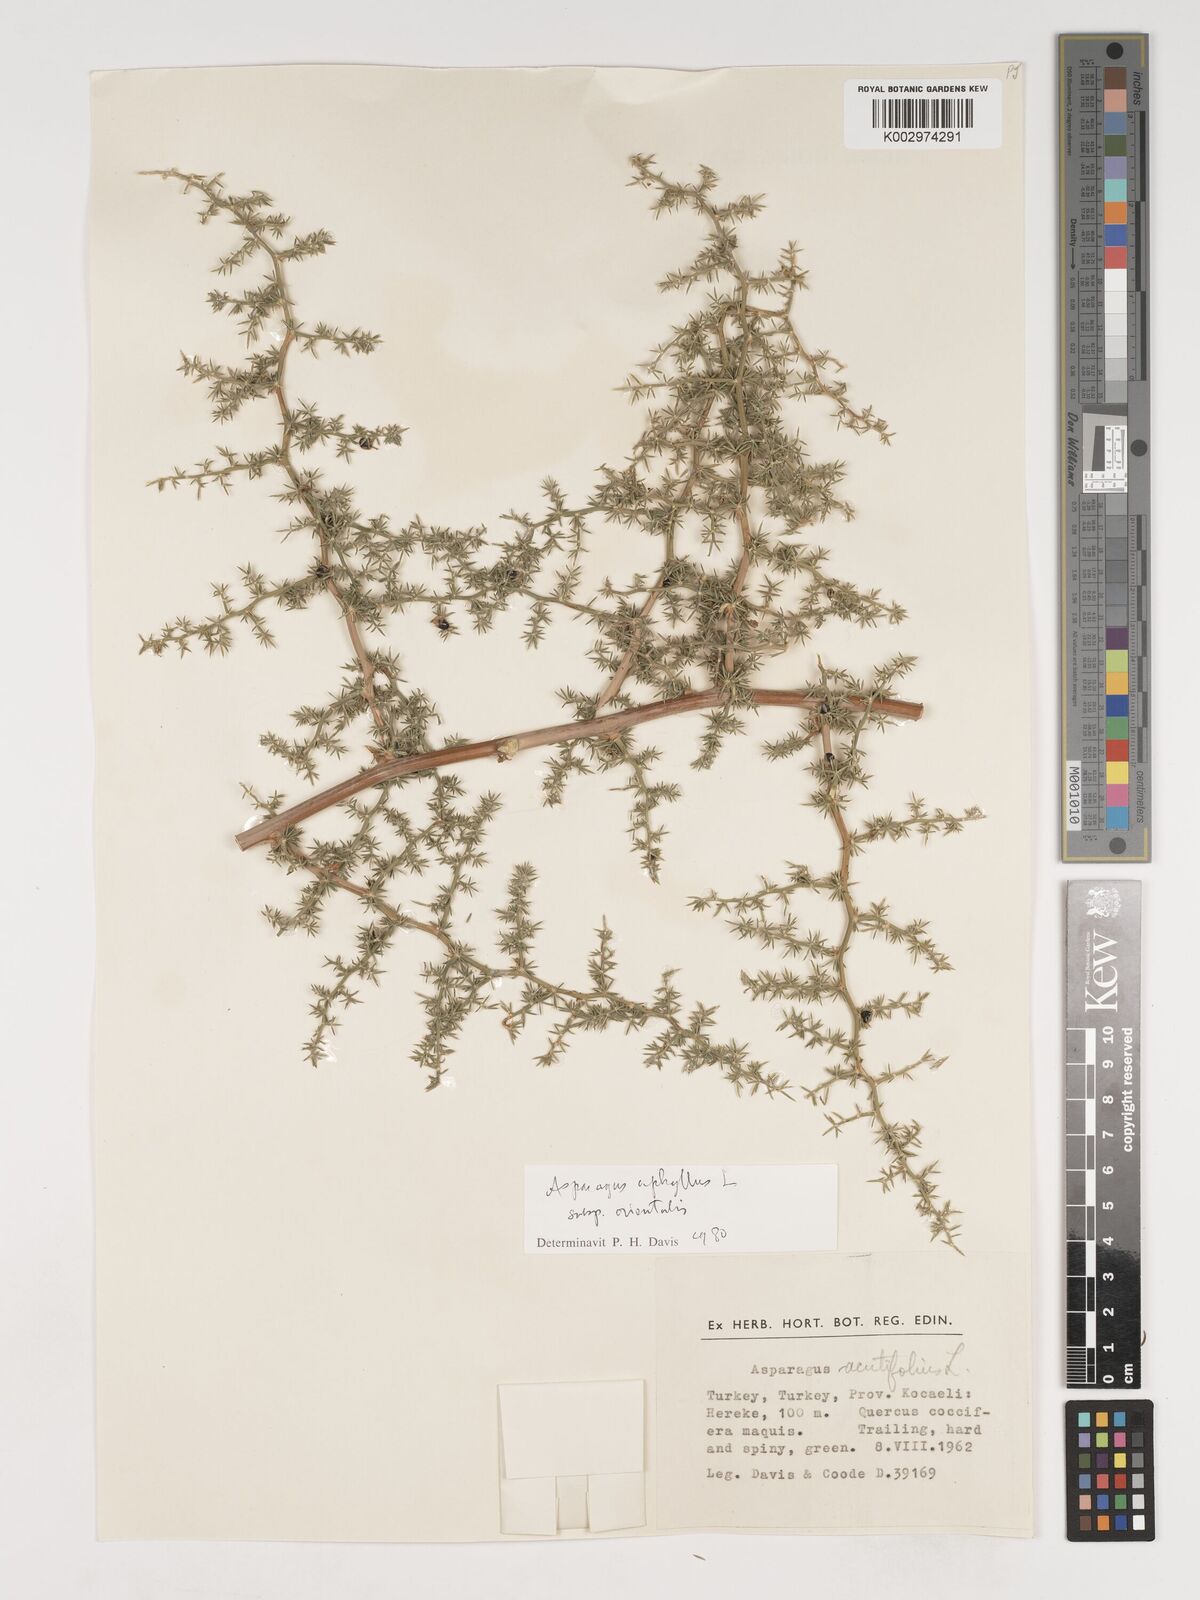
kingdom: Plantae
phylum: Tracheophyta
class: Liliopsida
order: Asparagales
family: Asparagaceae
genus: Asparagus
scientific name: Asparagus aphyllus
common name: Mediterranean asparagus
